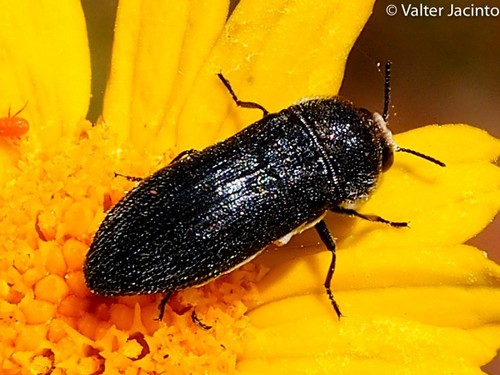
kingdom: Animalia
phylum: Arthropoda
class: Insecta
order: Coleoptera
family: Buprestidae
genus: Acmaeodera
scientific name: Acmaeodera cylindrica
